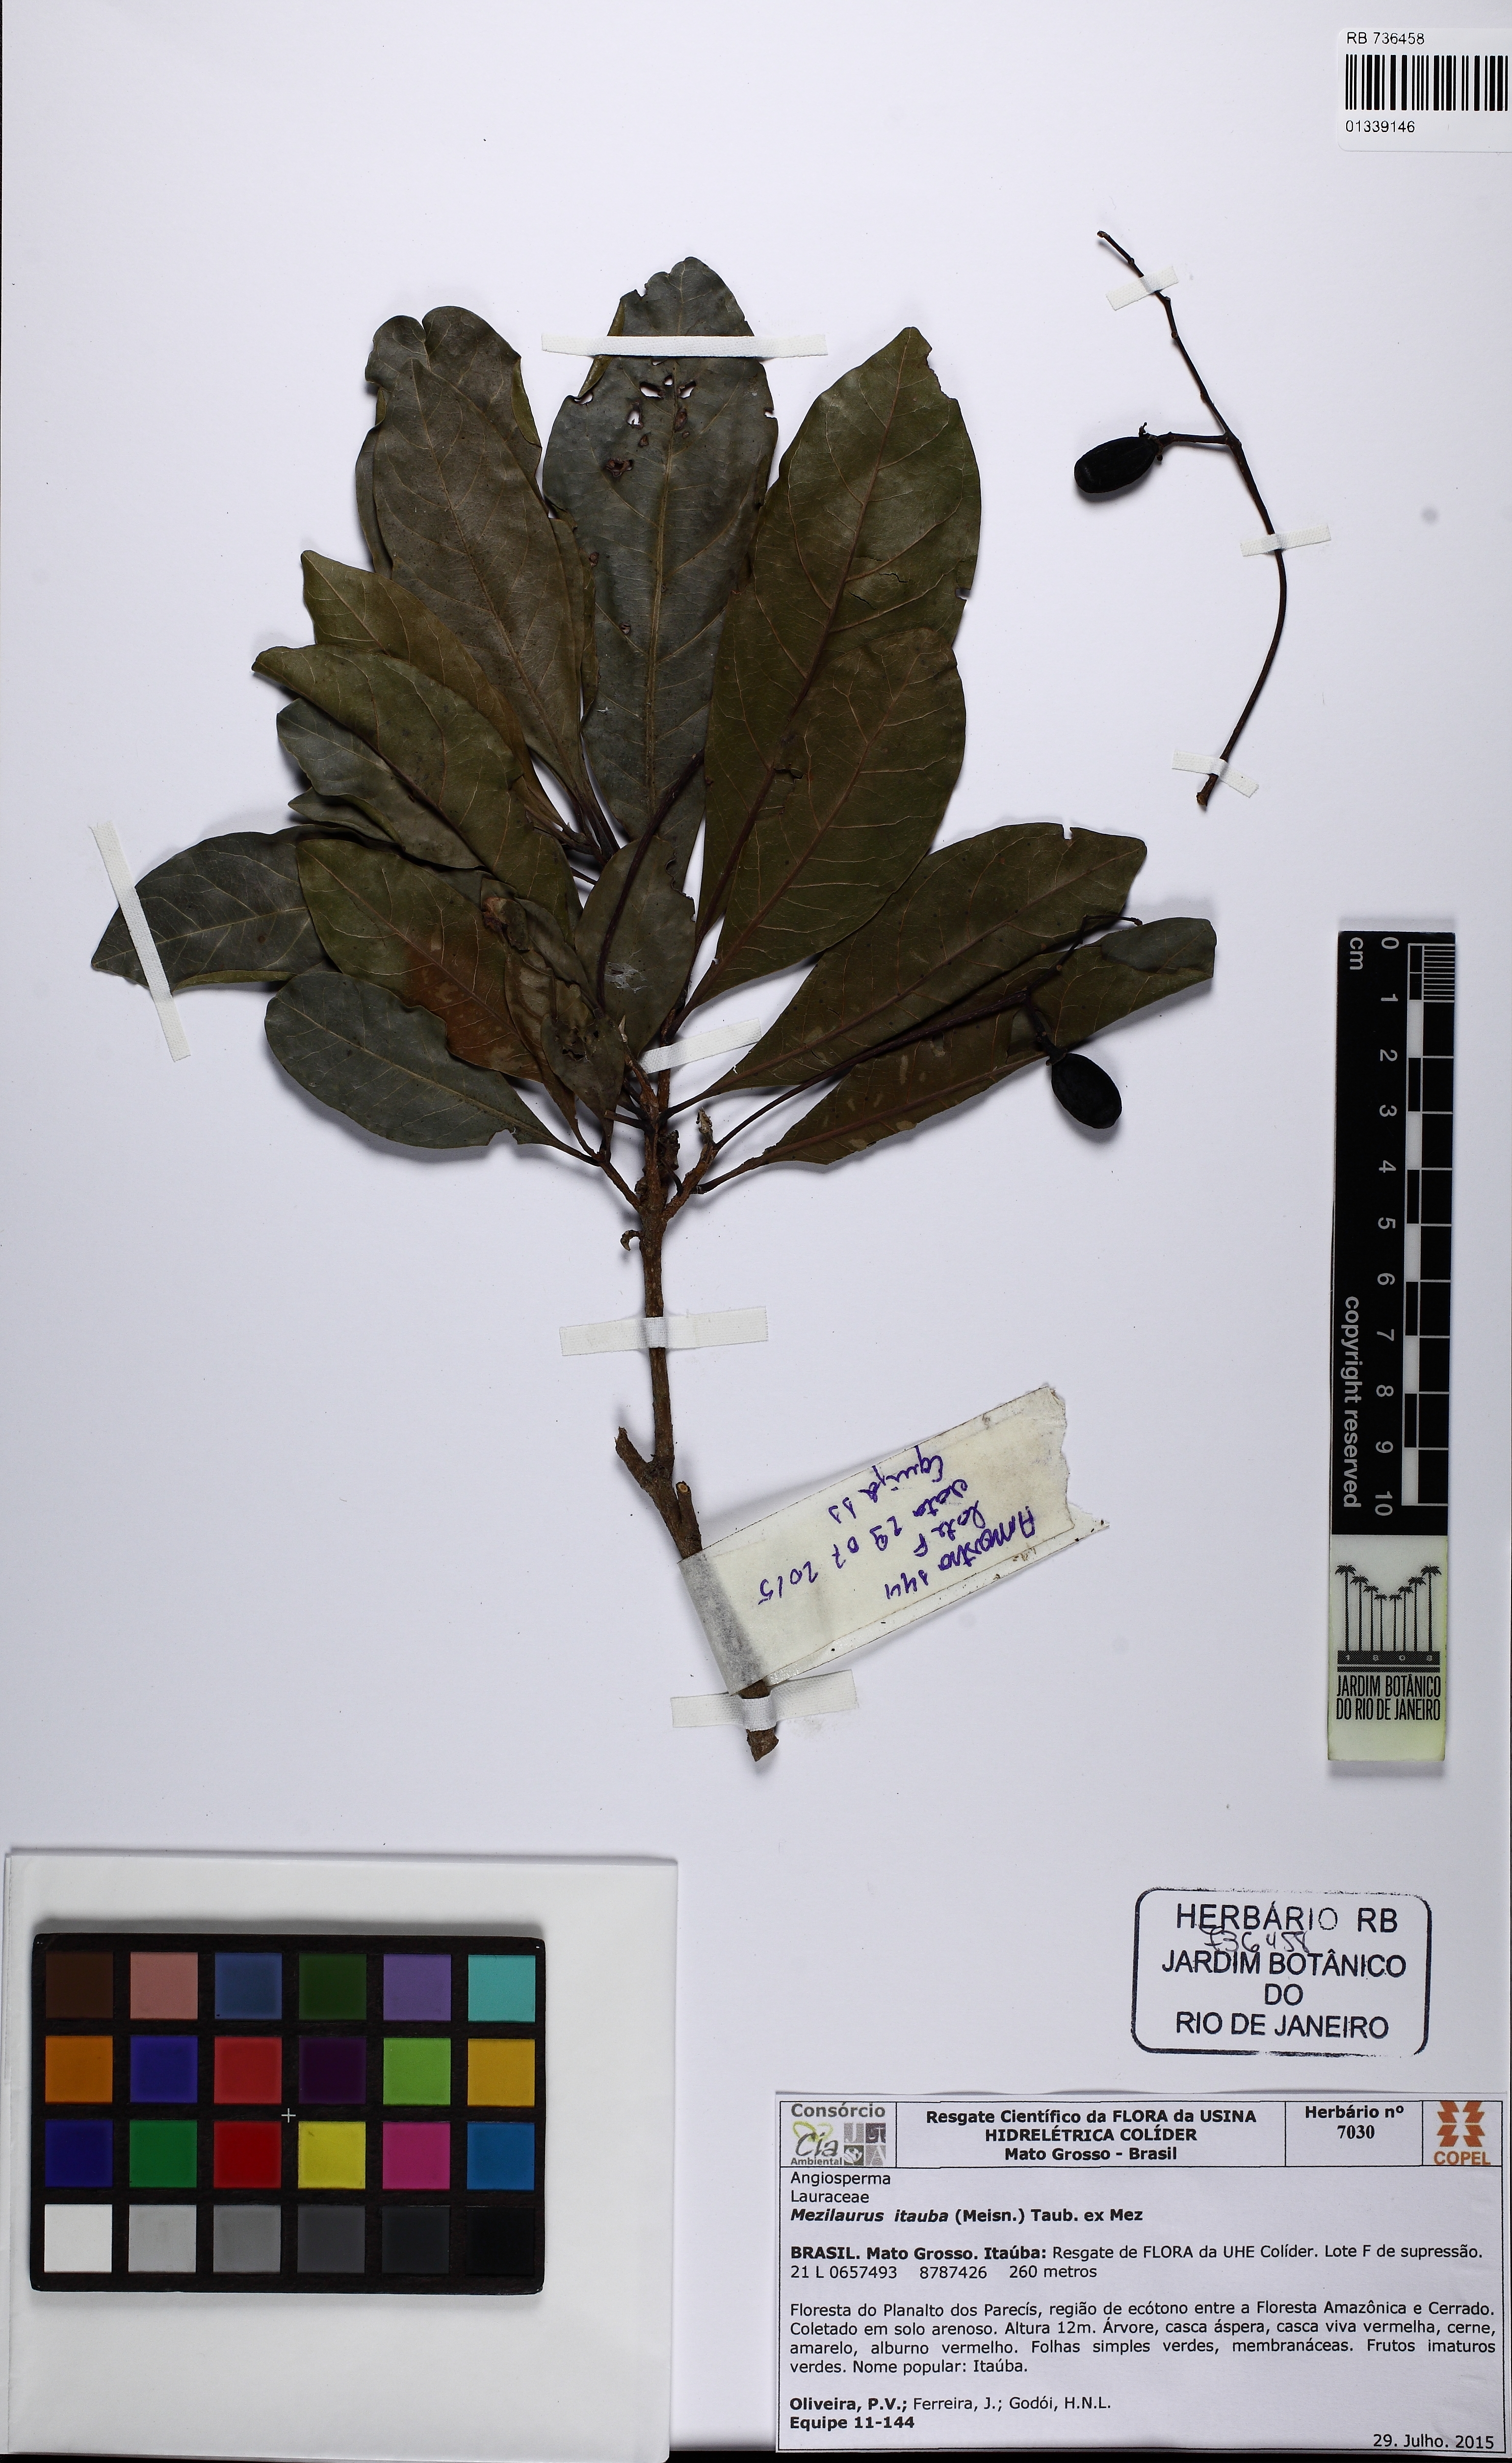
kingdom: Plantae
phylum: Tracheophyta
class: Magnoliopsida
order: Laurales
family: Lauraceae
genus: Mezilaurus
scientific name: Mezilaurus ita-uba
